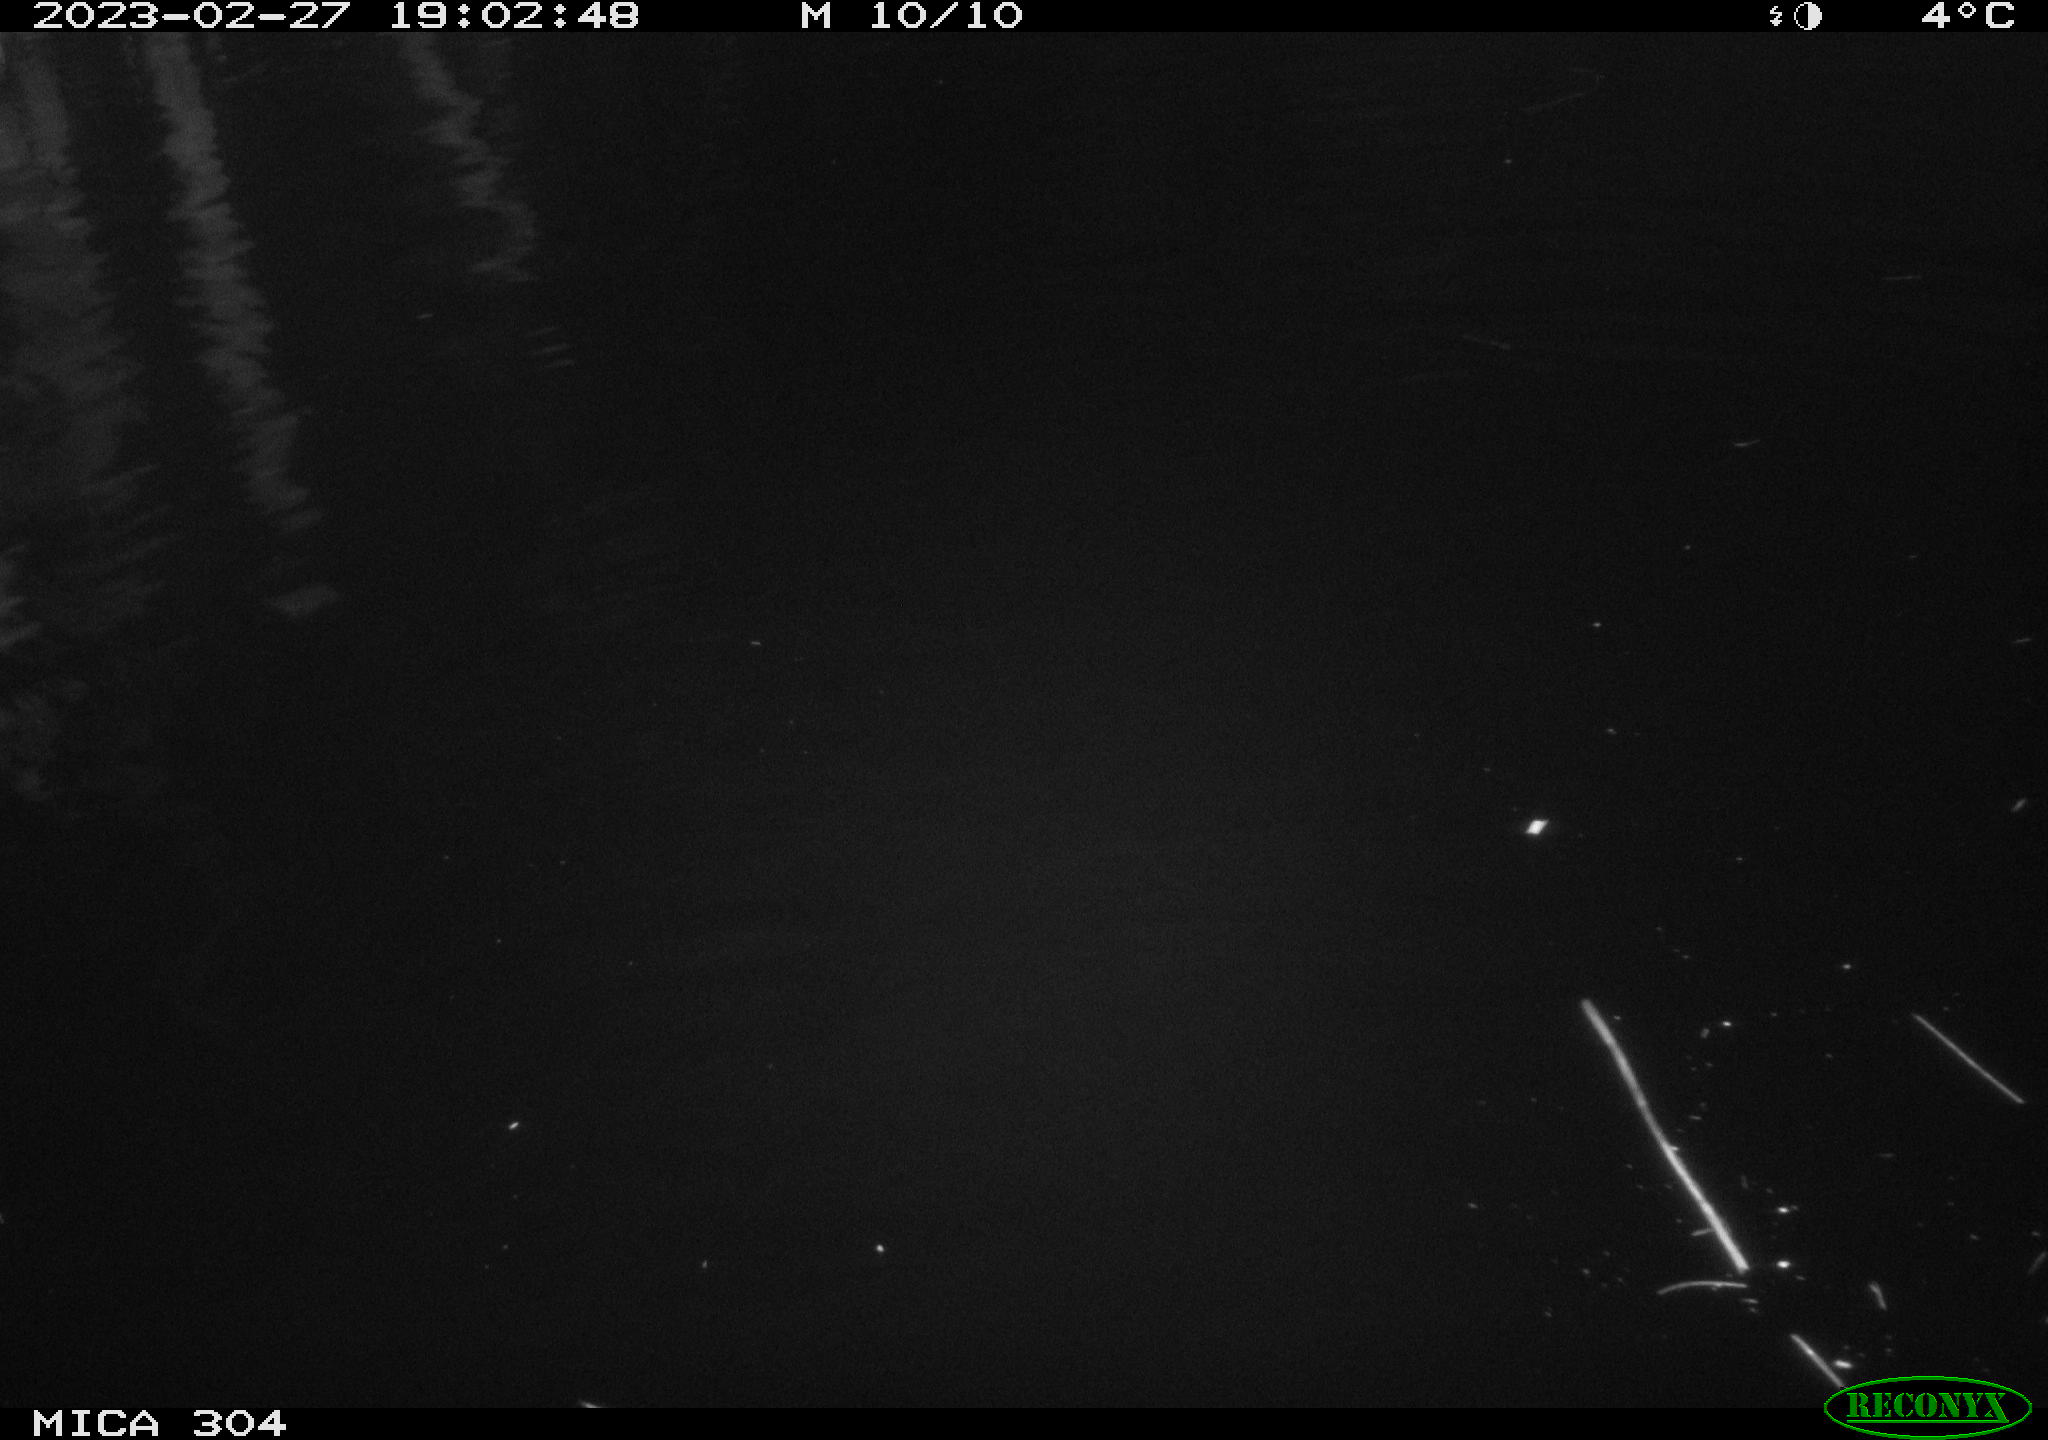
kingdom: Animalia
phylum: Chordata
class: Mammalia
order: Rodentia
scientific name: Rodentia
